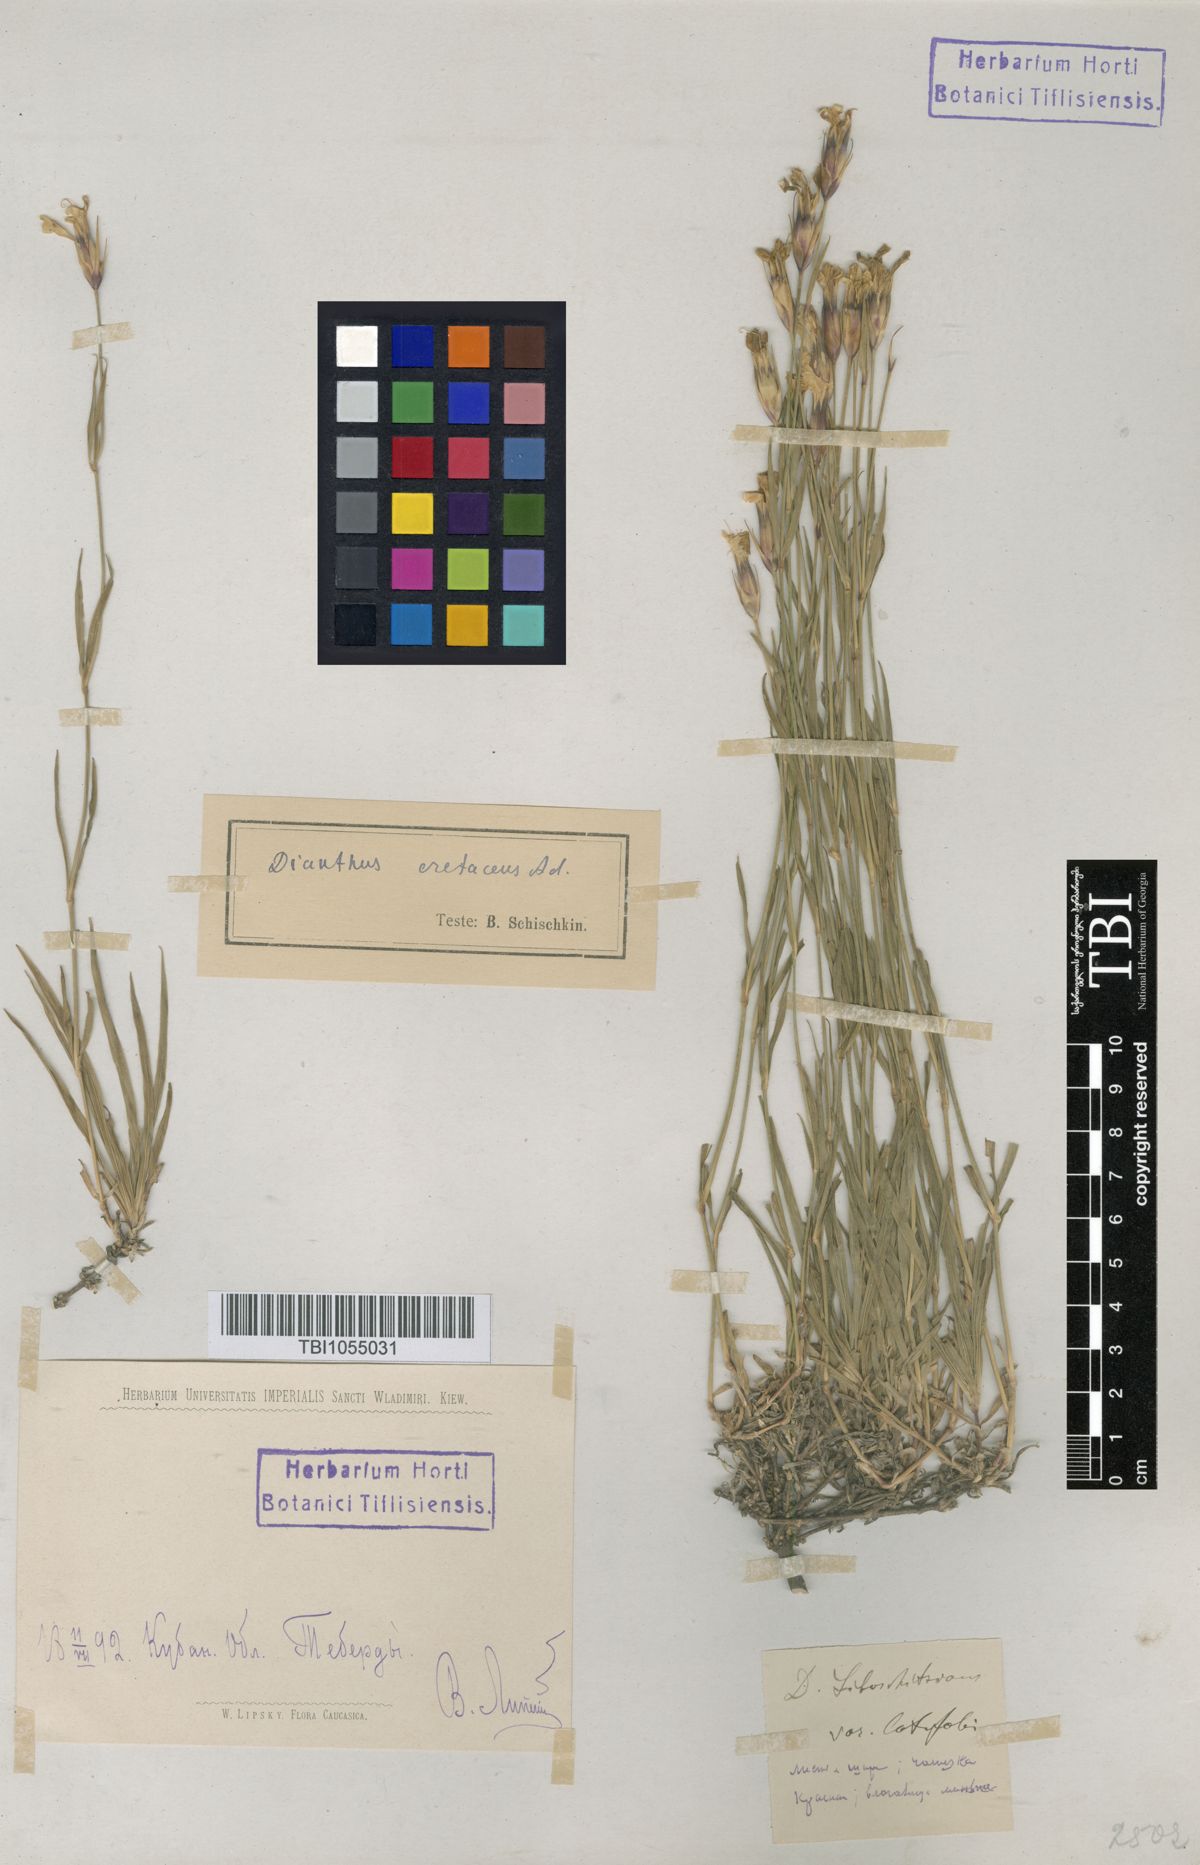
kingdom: Plantae
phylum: Tracheophyta
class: Magnoliopsida
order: Caryophyllales
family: Caryophyllaceae
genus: Dianthus
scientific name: Dianthus cretaceus
